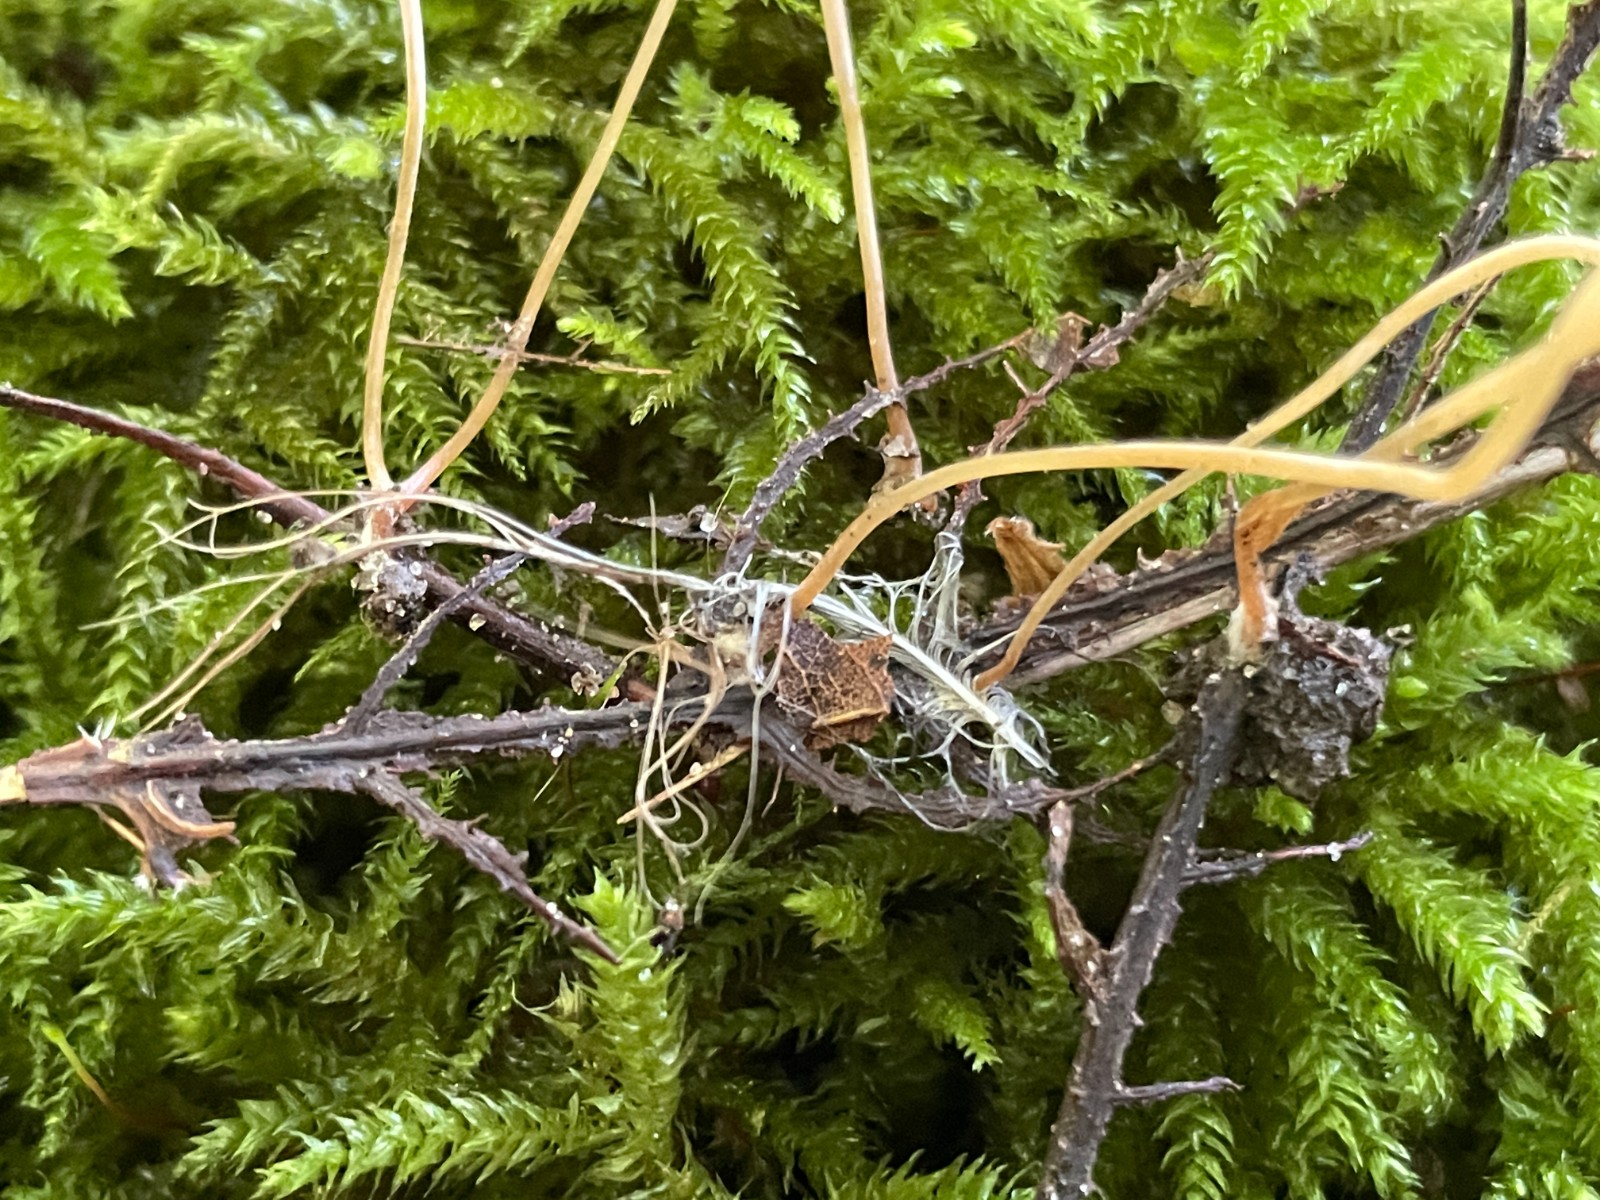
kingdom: Fungi
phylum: Basidiomycota
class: Agaricomycetes
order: Agaricales
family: Typhulaceae
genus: Typhula
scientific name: Typhula juncea
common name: trådagtig rørkølle
